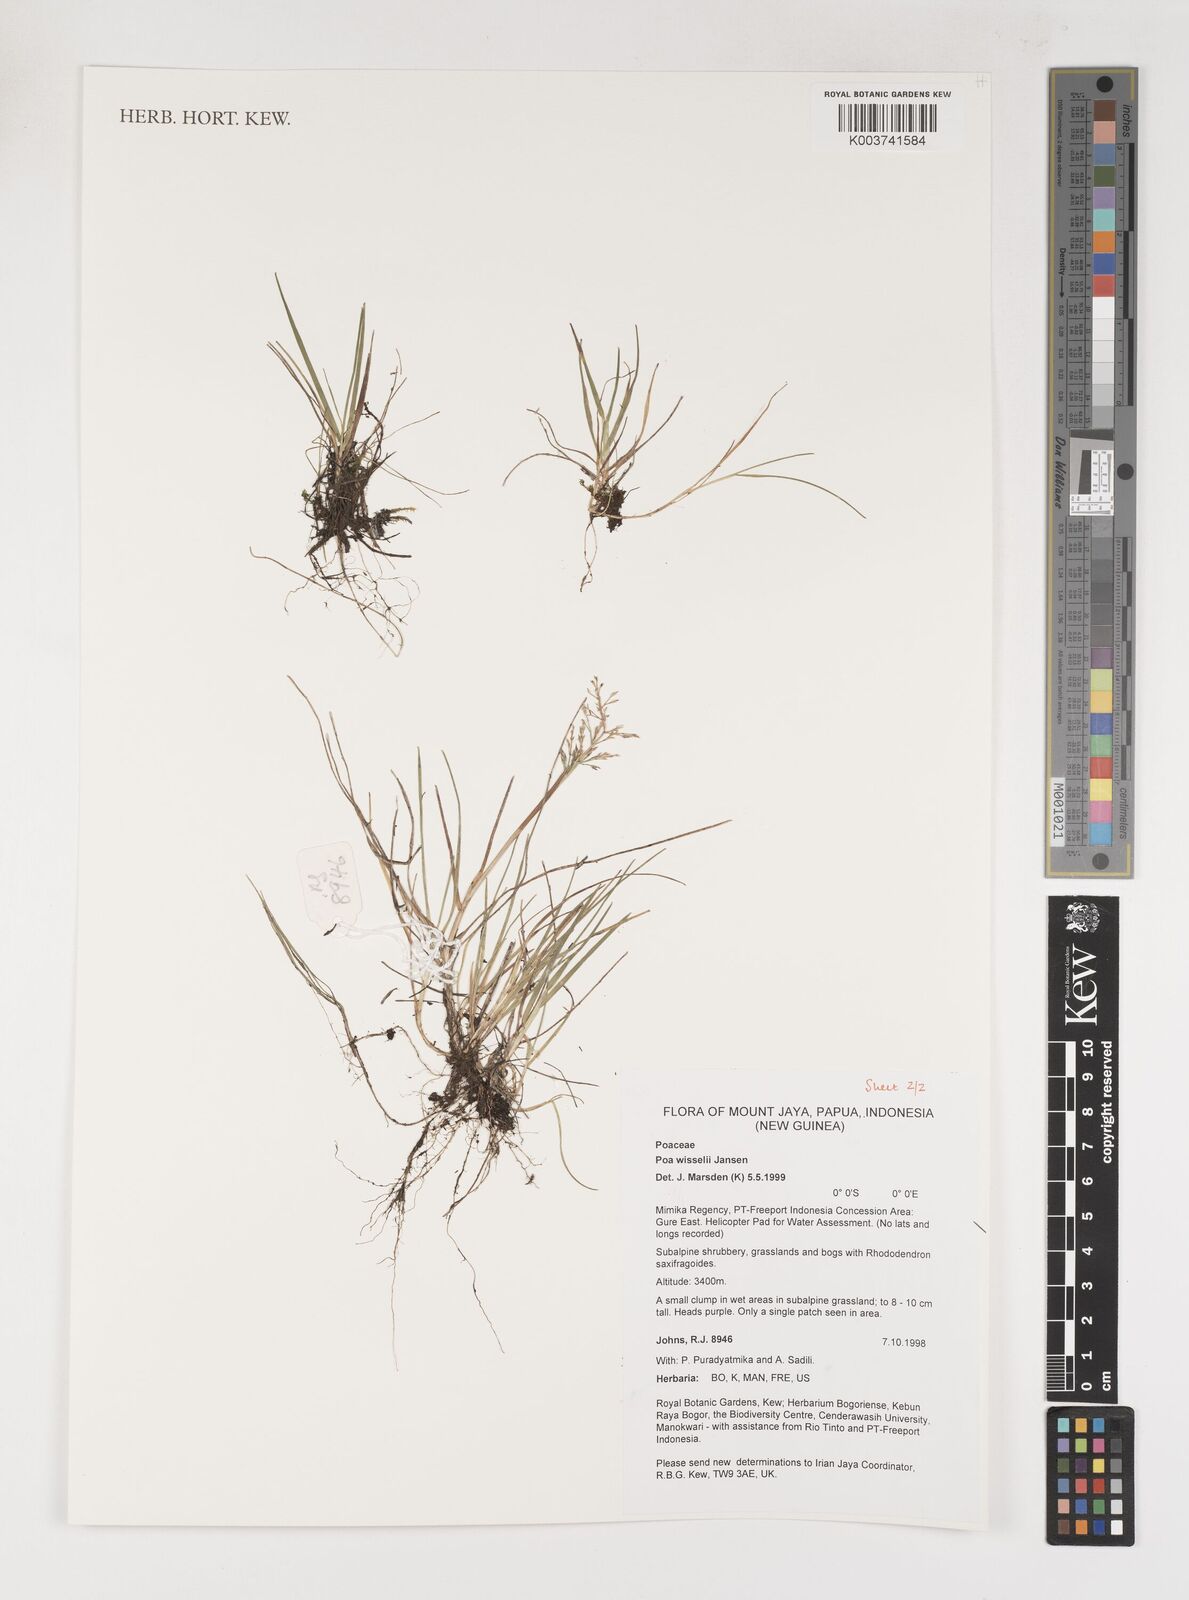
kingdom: Plantae
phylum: Tracheophyta
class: Liliopsida
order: Poales
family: Poaceae
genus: Poa
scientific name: Poa wisselii
